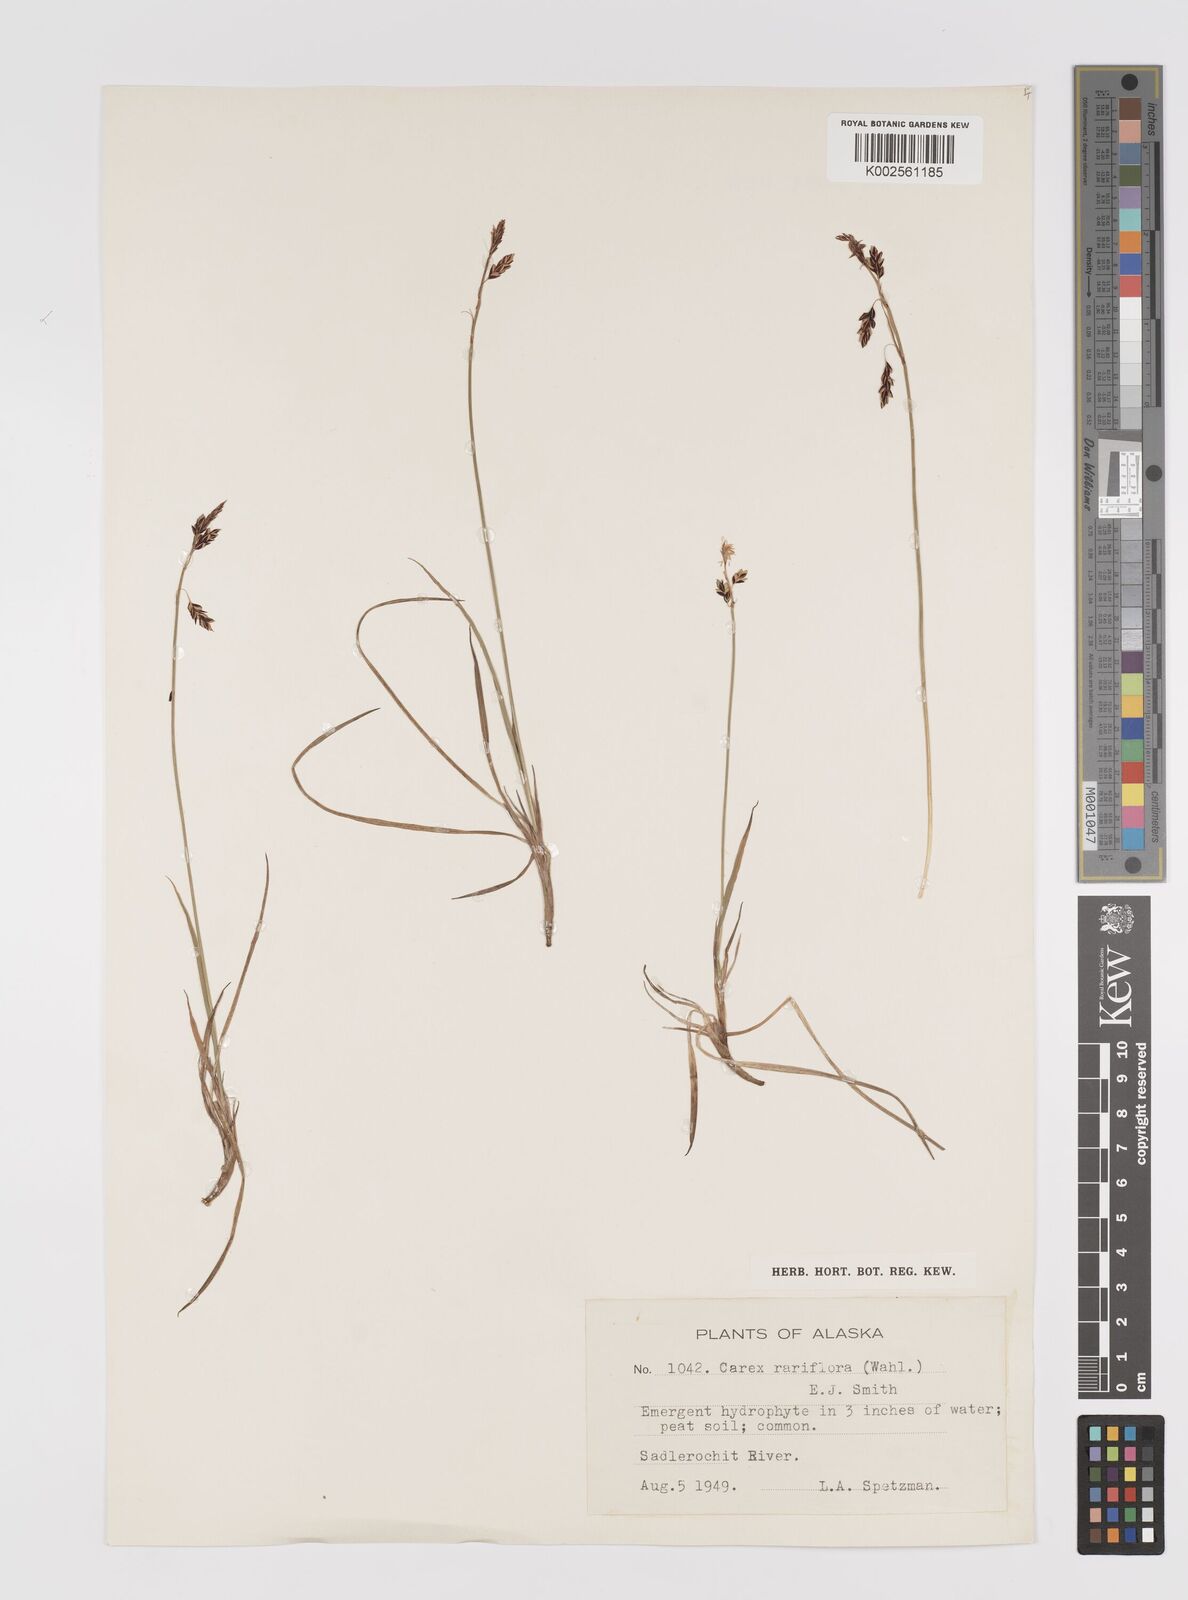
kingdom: Plantae
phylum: Tracheophyta
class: Liliopsida
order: Poales
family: Cyperaceae
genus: Carex
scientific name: Carex rariflora
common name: Loose-flowered alpine sedge
